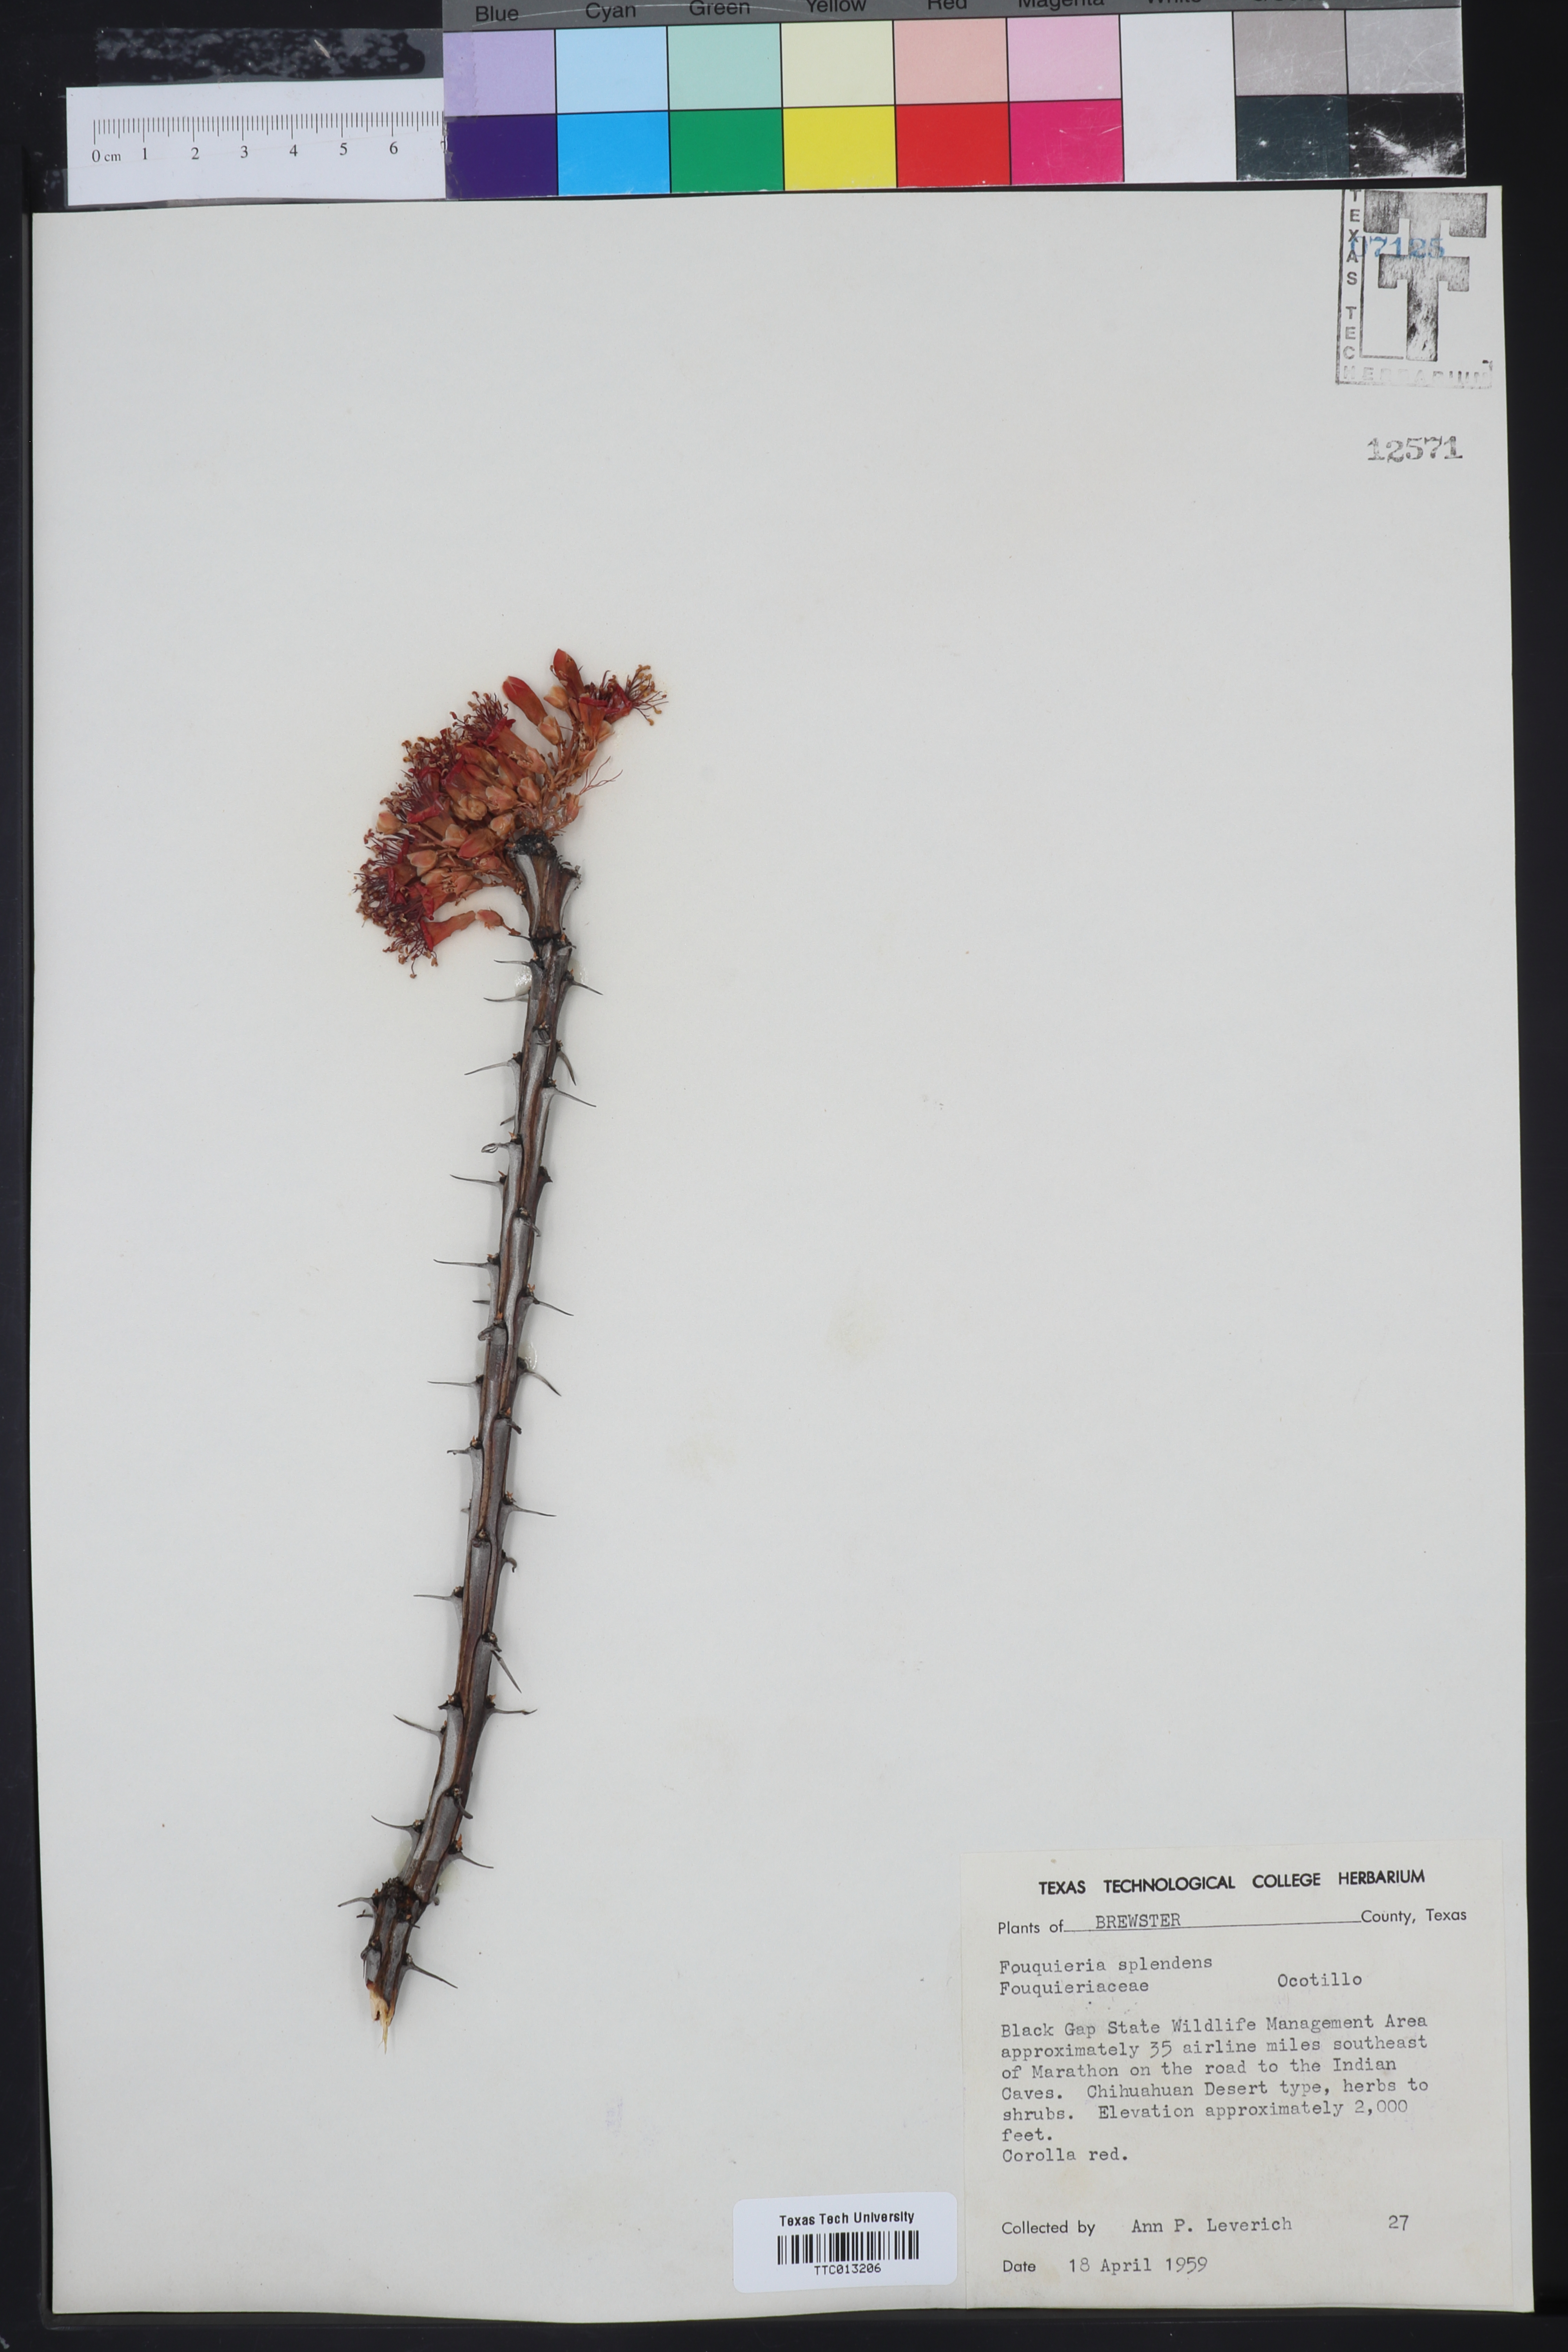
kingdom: Plantae
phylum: Tracheophyta
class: Magnoliopsida
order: Ericales
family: Fouquieriaceae
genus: Fouquieria
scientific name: Fouquieria splendens
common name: Vine-cactus
